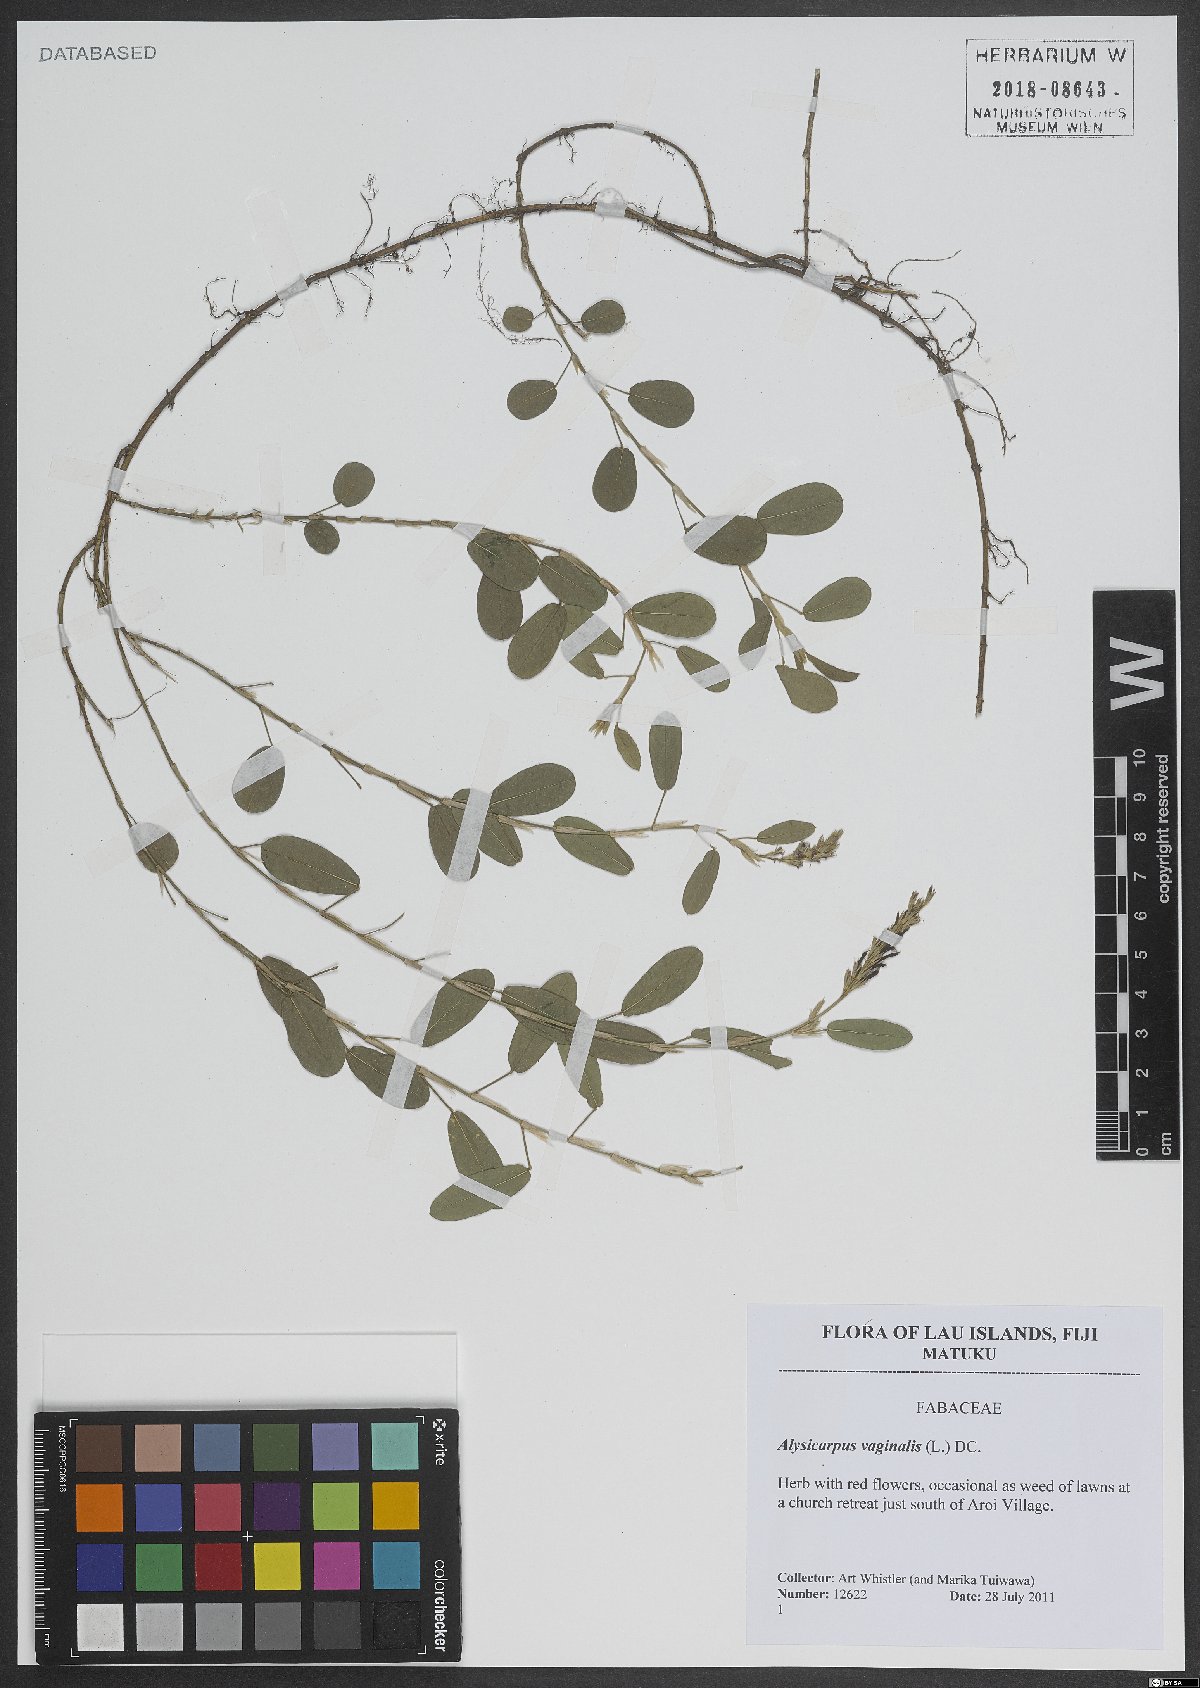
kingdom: Plantae
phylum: Tracheophyta
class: Magnoliopsida
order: Fabales
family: Fabaceae
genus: Alysicarpus
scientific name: Alysicarpus vaginalis
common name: White moneywort
